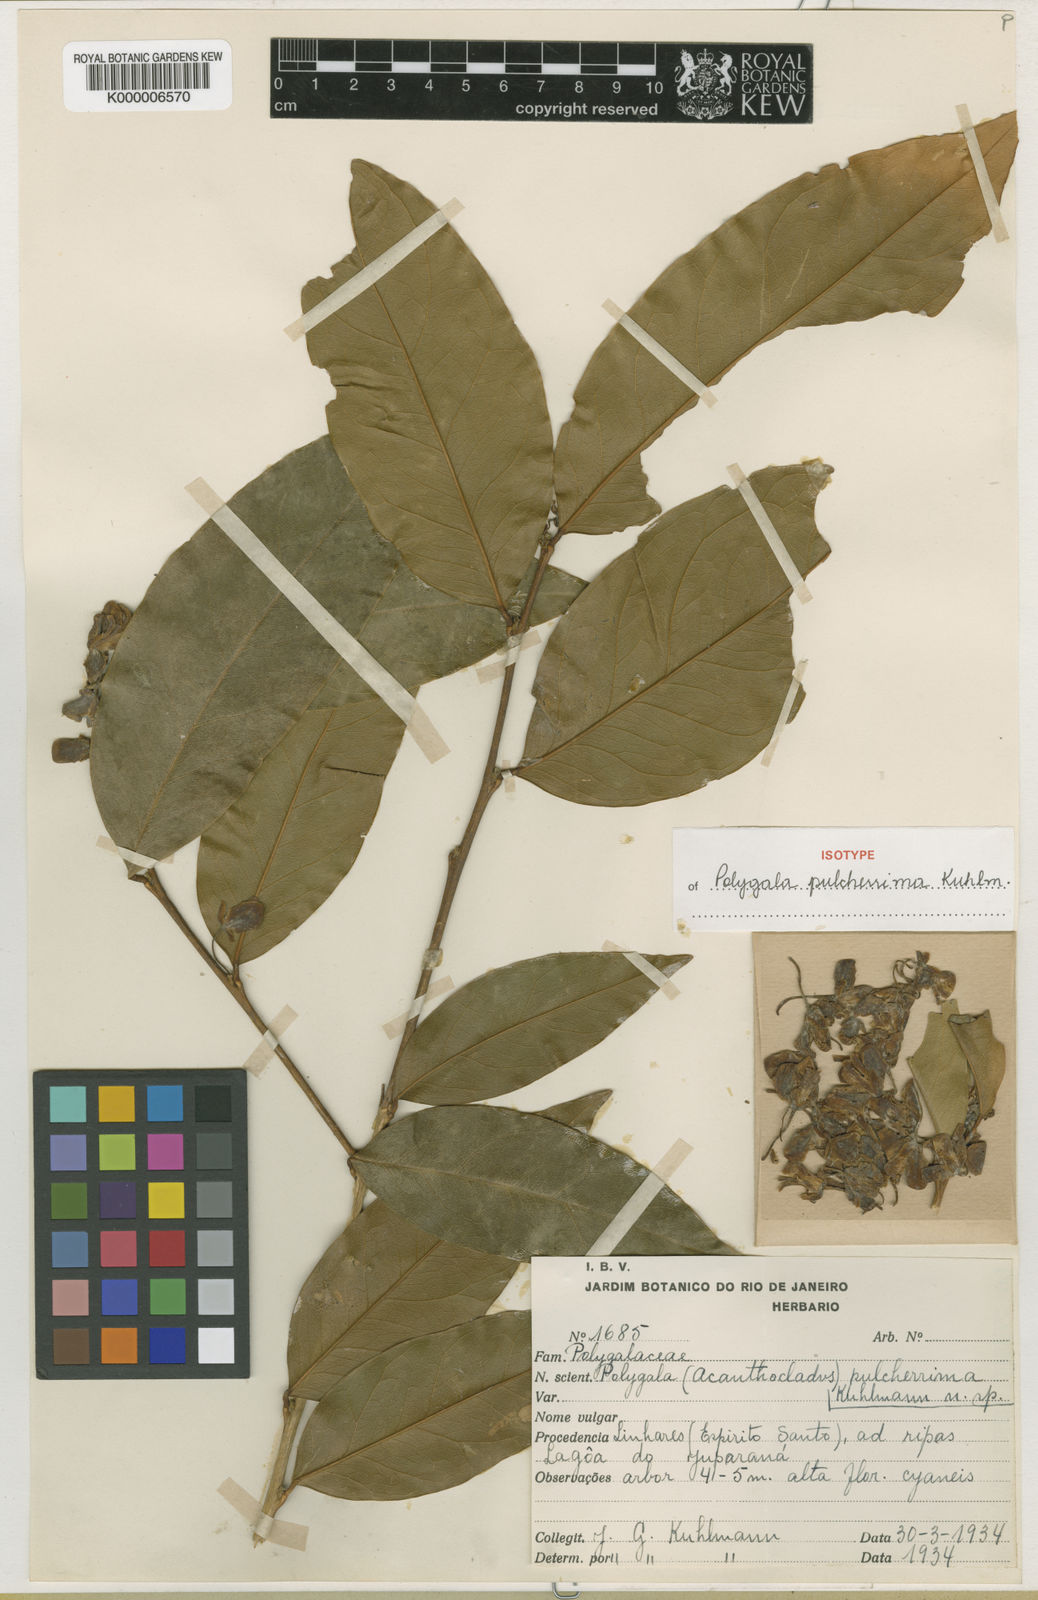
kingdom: Plantae
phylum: Tracheophyta
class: Magnoliopsida
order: Fabales
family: Polygalaceae
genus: Acanthocladus
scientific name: Acanthocladus pulcherrimus
